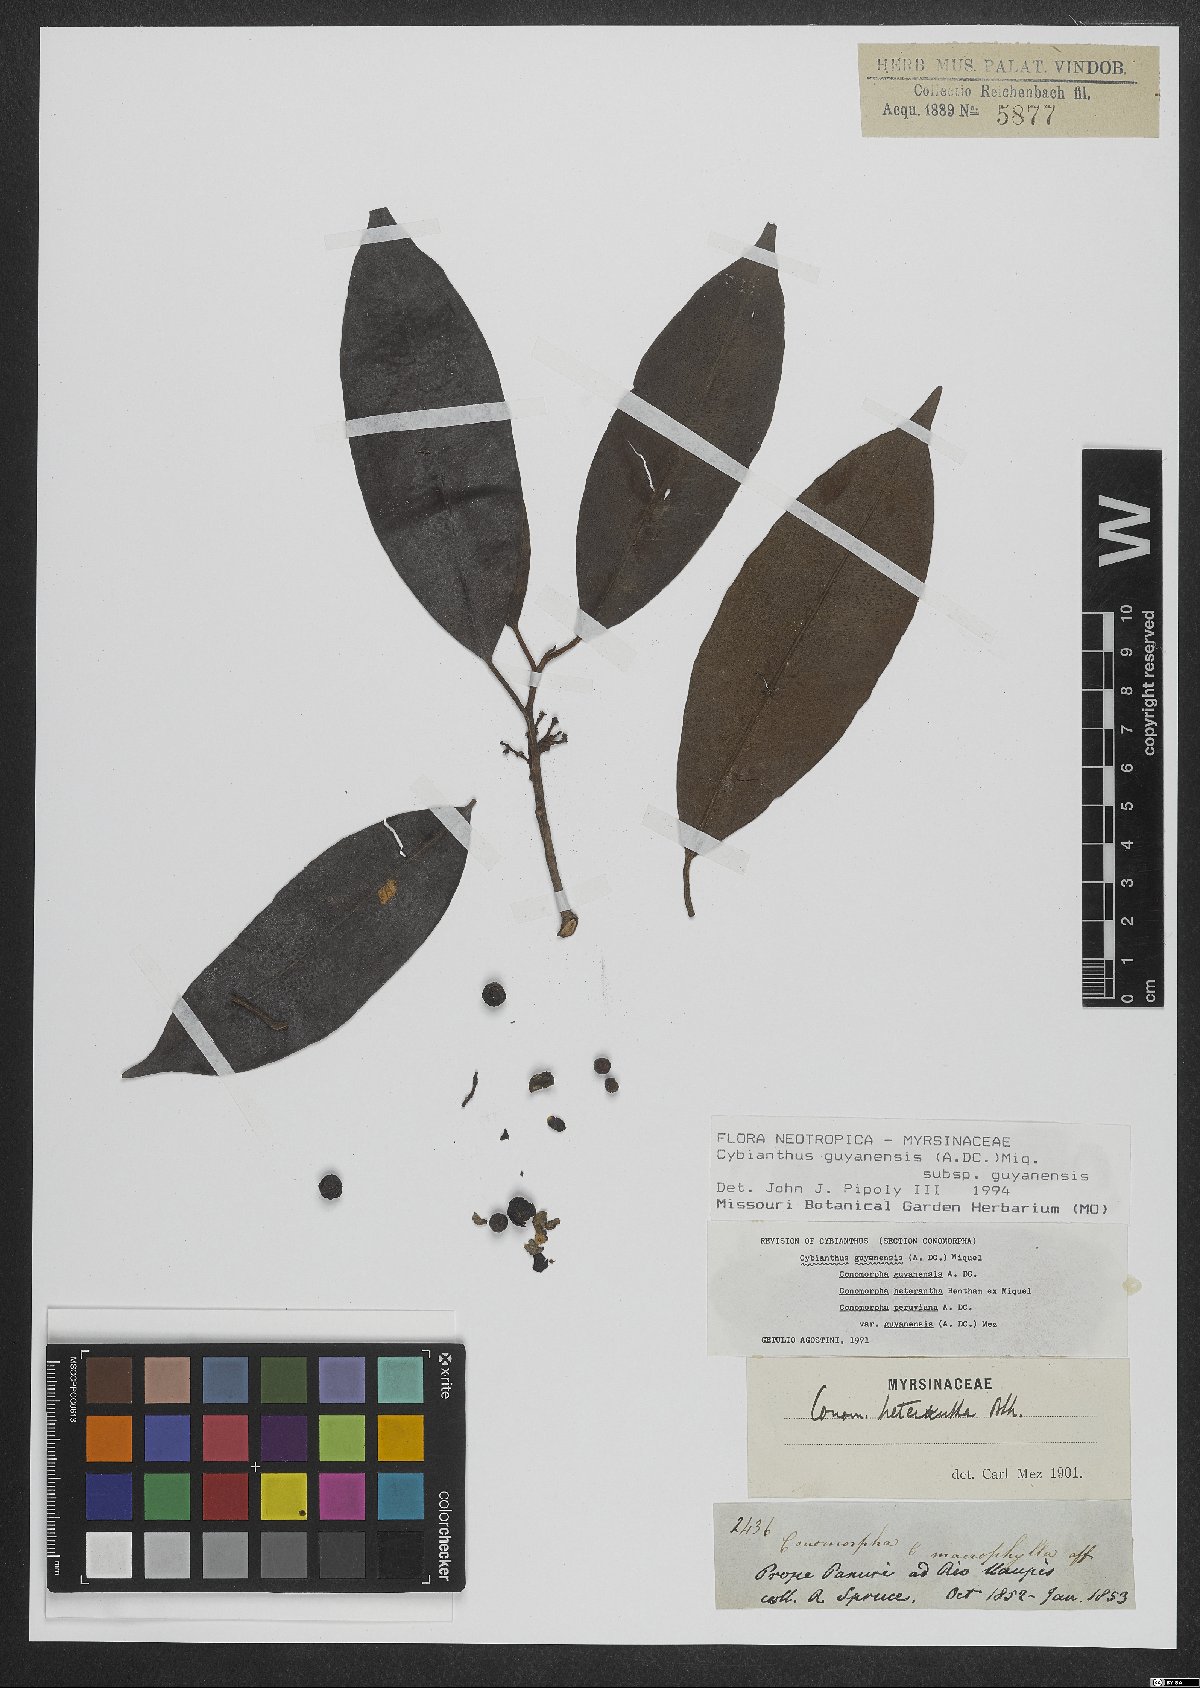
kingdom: Plantae
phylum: Tracheophyta
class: Magnoliopsida
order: Ericales
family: Primulaceae
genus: Cybianthus
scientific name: Cybianthus guyanensis
